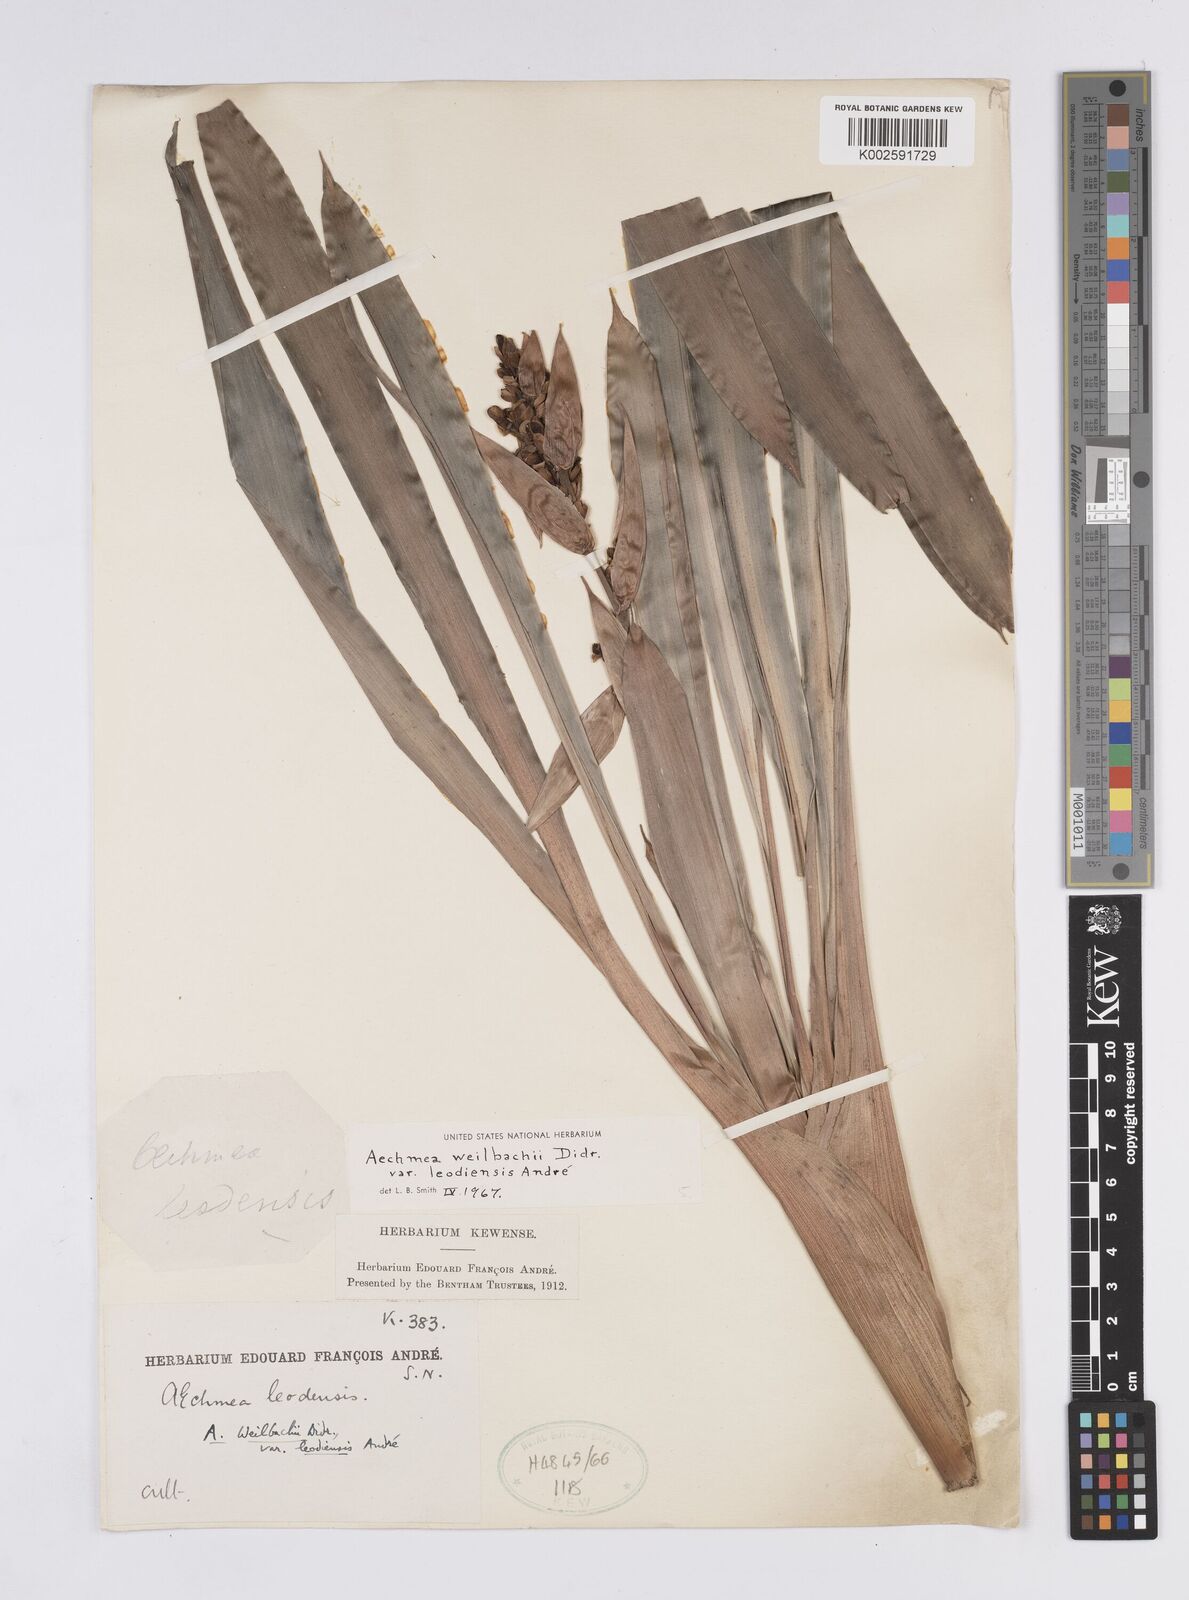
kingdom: Plantae
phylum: Tracheophyta
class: Liliopsida
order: Poales
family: Bromeliaceae
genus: Aechmea
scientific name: Aechmea weilbachii
